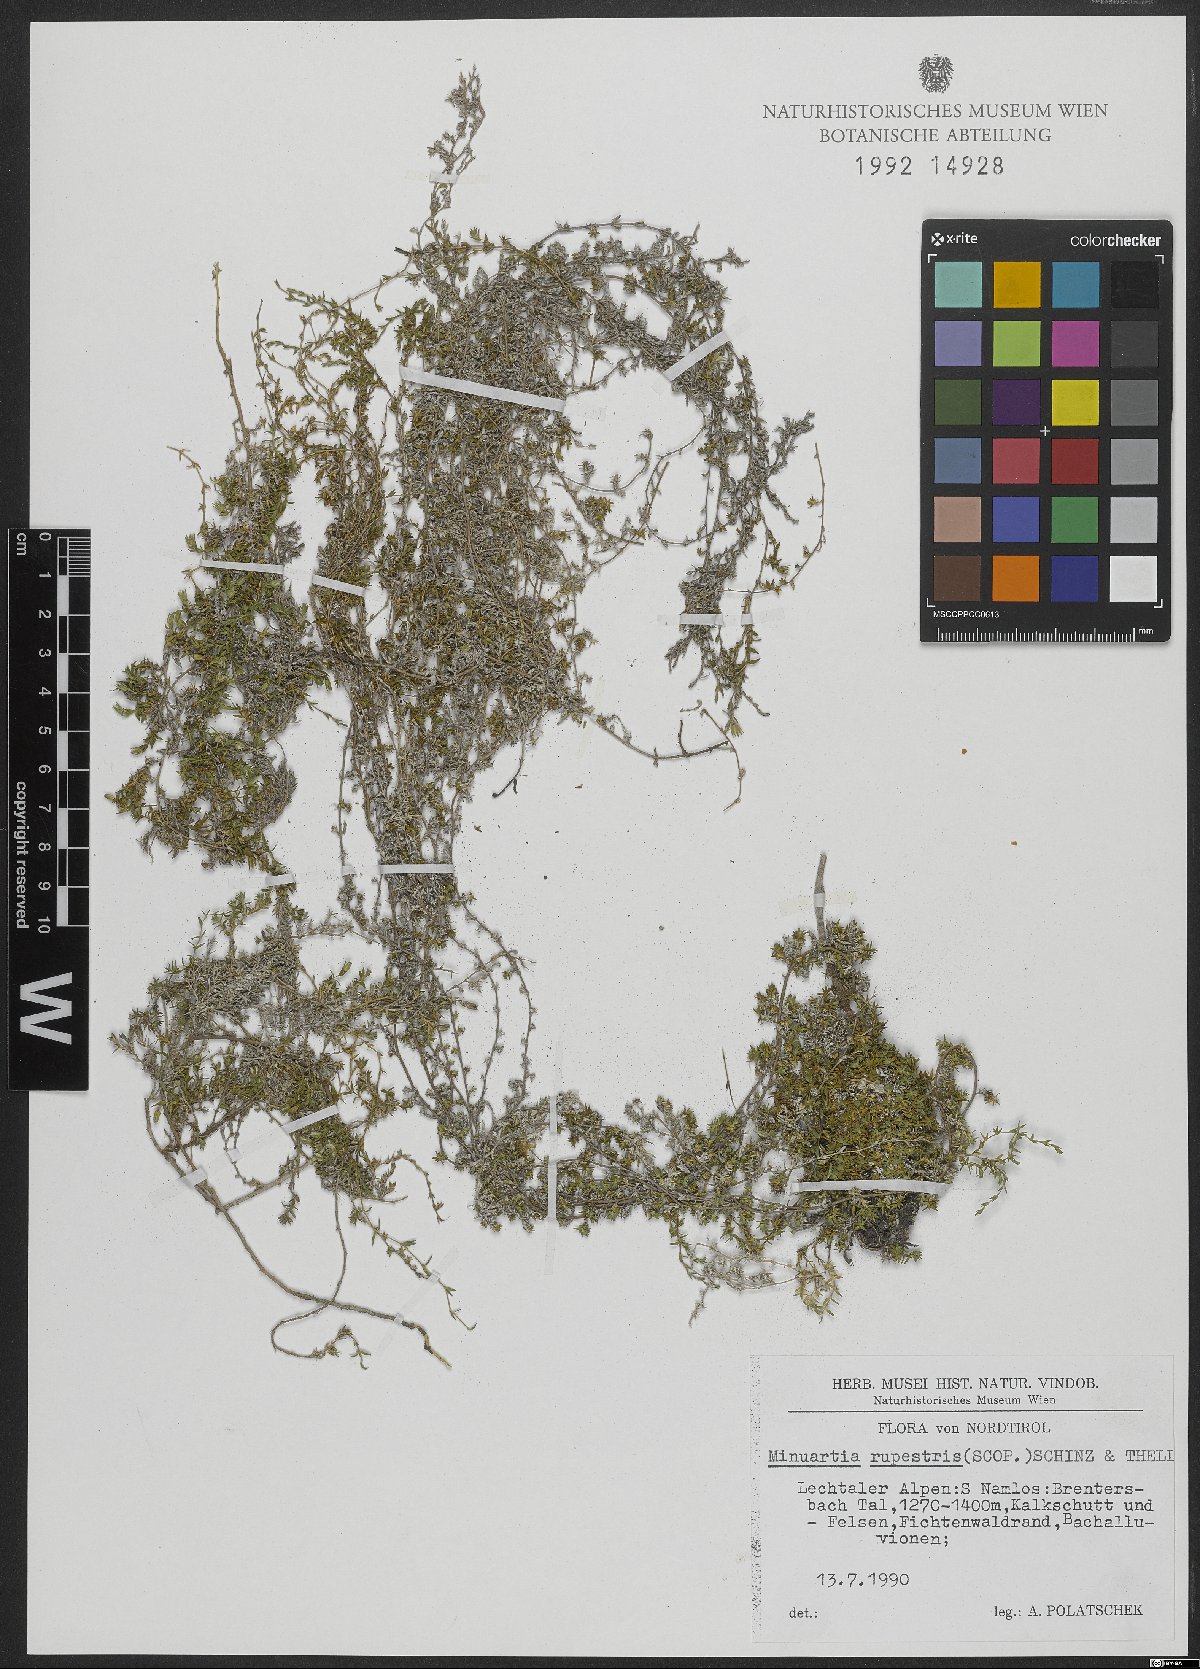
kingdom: Plantae
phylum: Tracheophyta
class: Magnoliopsida
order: Caryophyllales
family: Caryophyllaceae
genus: Facchinia
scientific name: Facchinia rupestris
